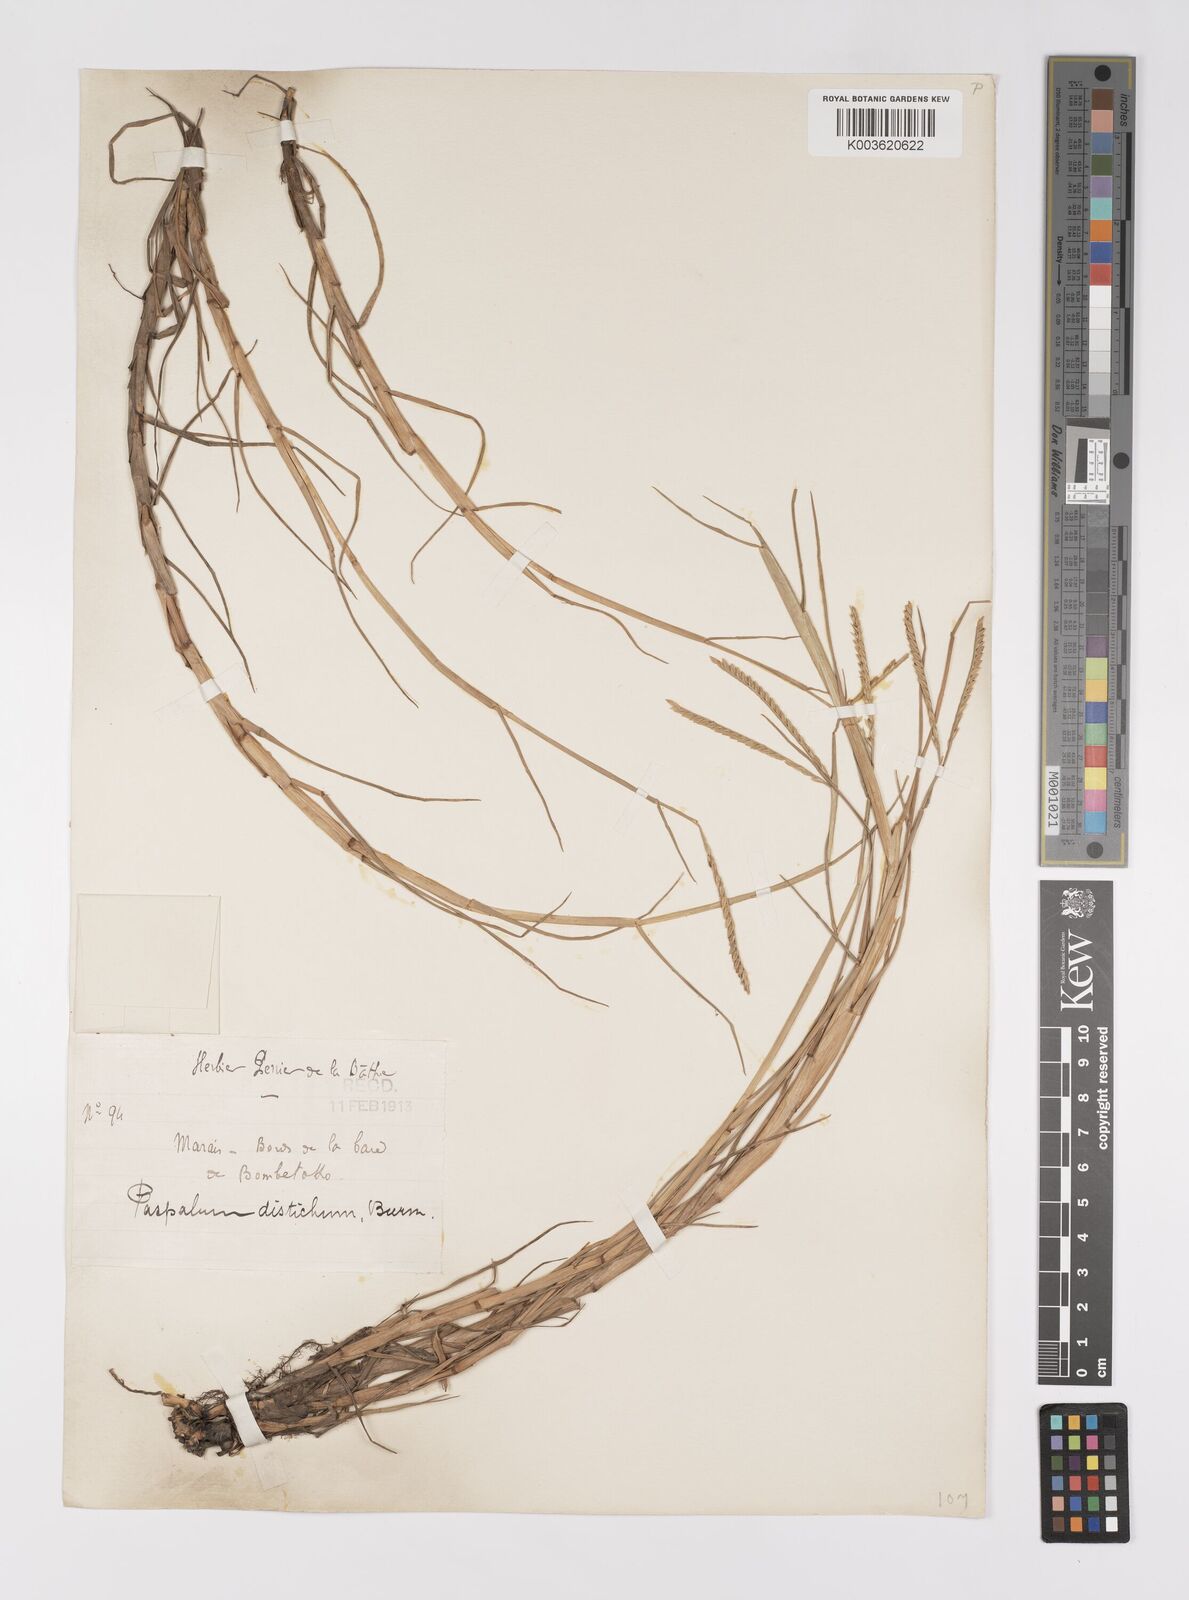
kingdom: Plantae
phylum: Tracheophyta
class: Liliopsida
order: Poales
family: Poaceae
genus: Paspalum
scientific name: Paspalum vaginatum
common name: Seashore paspalum
